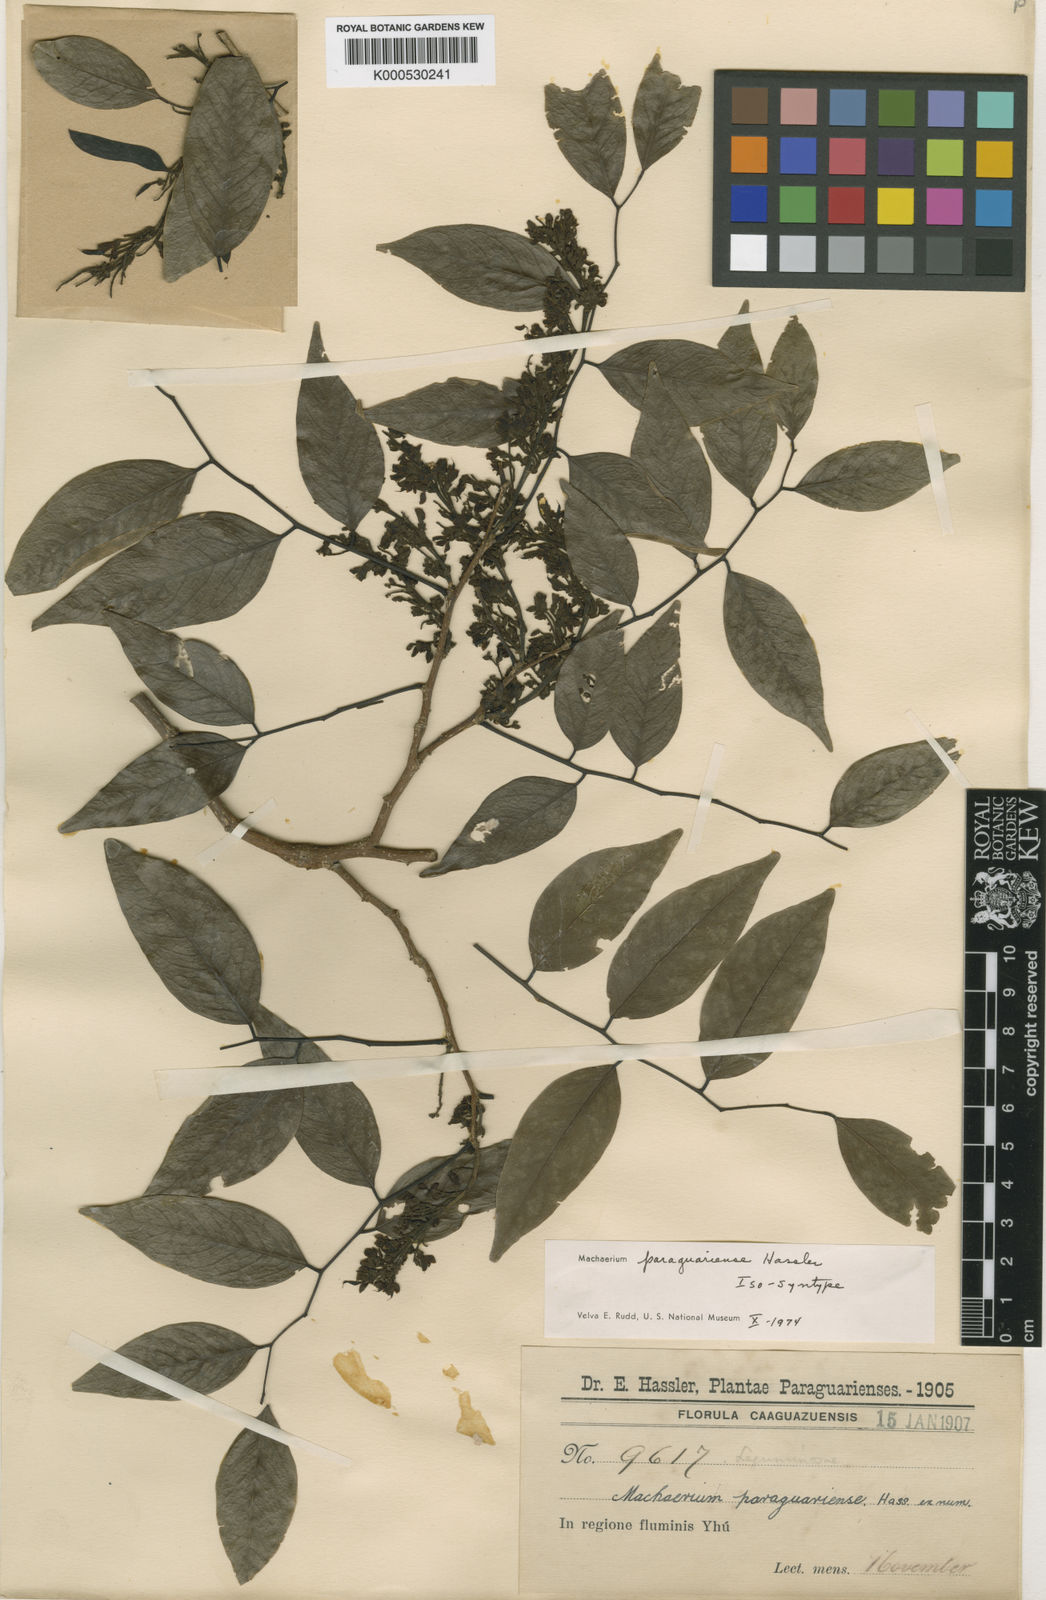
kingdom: Plantae
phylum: Tracheophyta
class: Magnoliopsida
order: Fabales
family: Fabaceae
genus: Machaerium
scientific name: Machaerium oblongifolium
